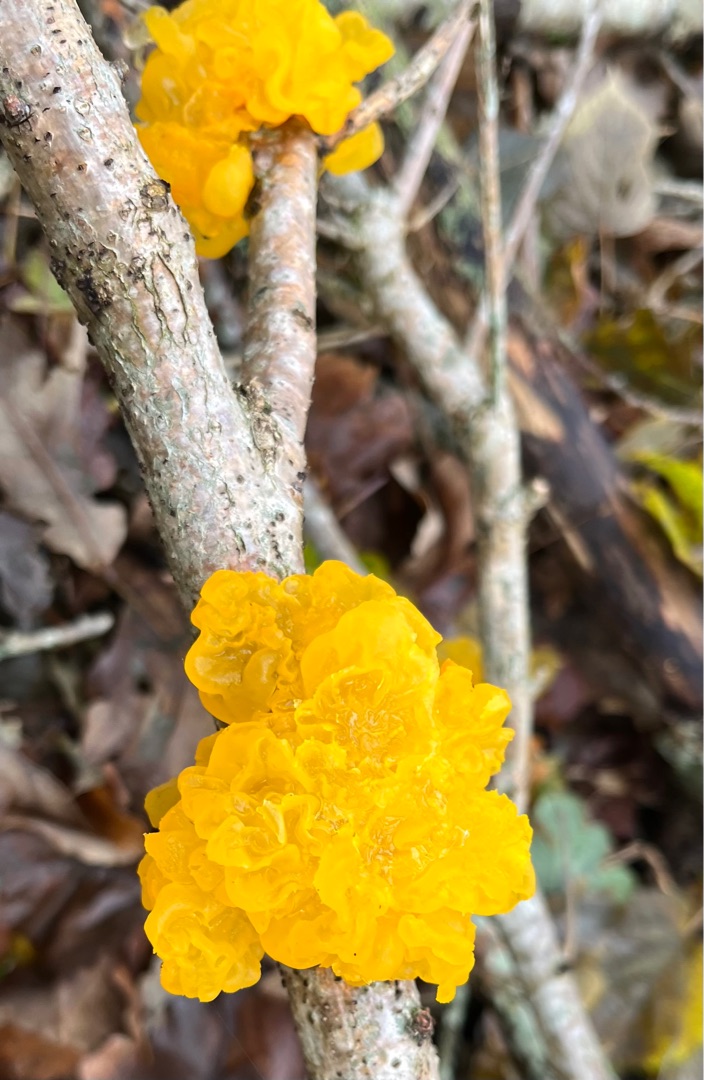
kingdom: Fungi
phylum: Basidiomycota
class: Tremellomycetes
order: Tremellales
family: Tremellaceae
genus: Tremella
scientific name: Tremella mesenterica
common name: Gul bævresvamp
